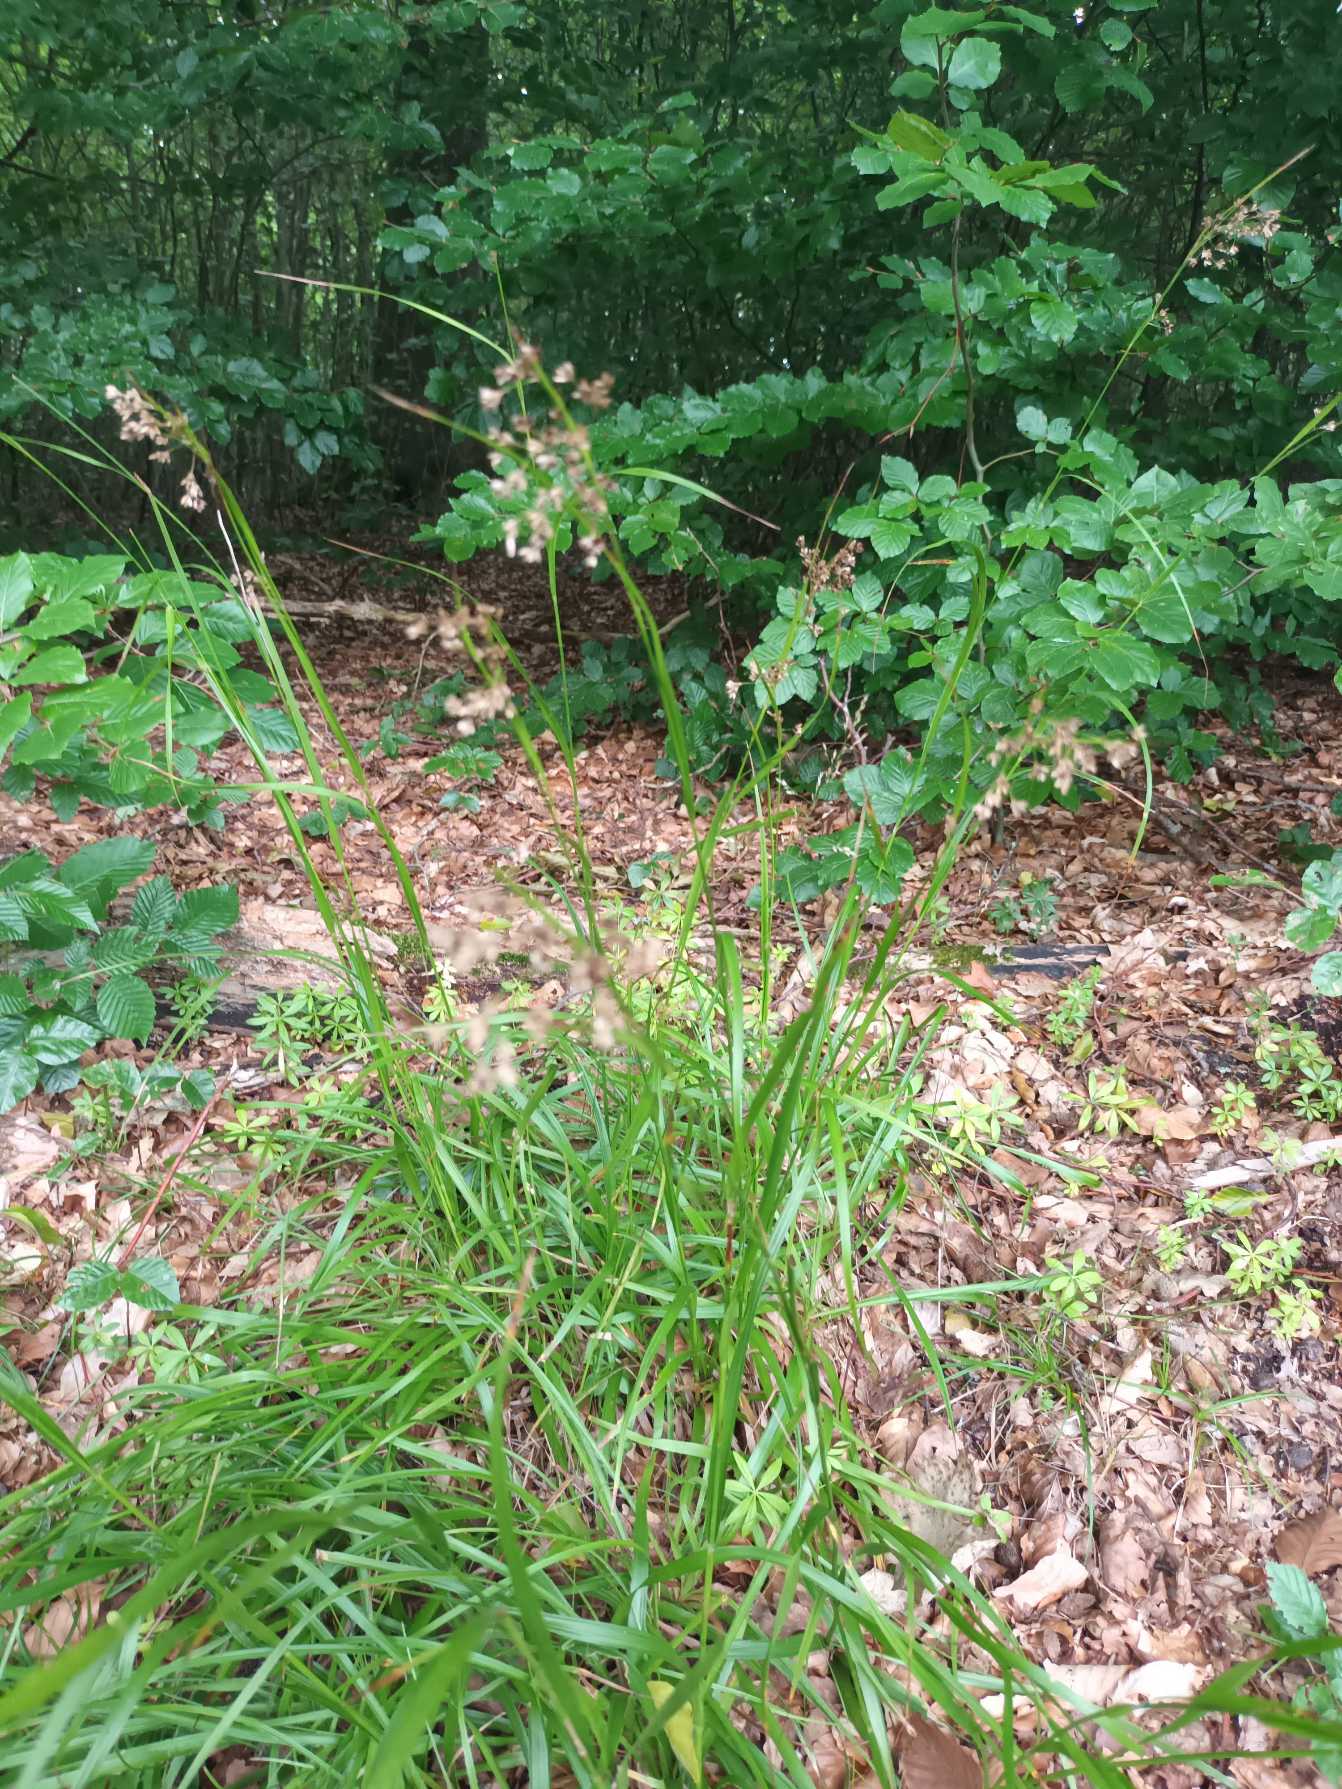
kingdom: Plantae
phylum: Tracheophyta
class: Liliopsida
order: Poales
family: Juncaceae
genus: Luzula
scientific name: Luzula luzuloides
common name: Bleg frytle
